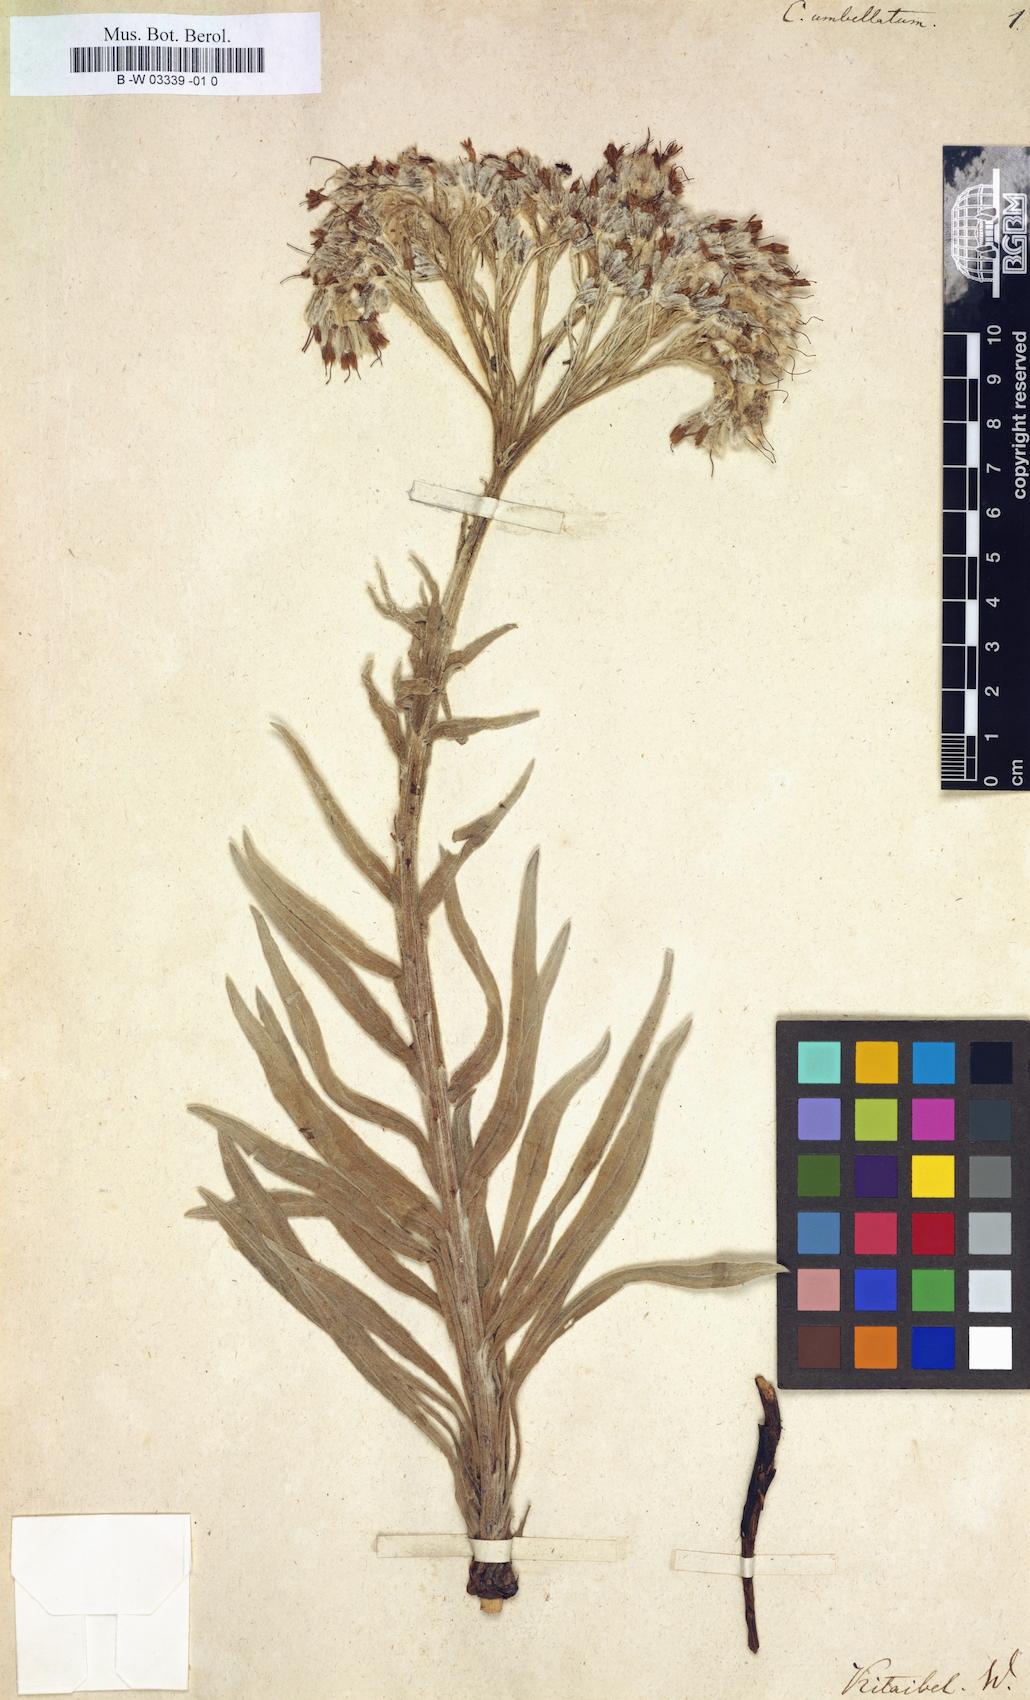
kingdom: Plantae
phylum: Tracheophyta
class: Magnoliopsida
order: Boraginales
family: Boraginaceae
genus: Rindera
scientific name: Rindera umbellata
